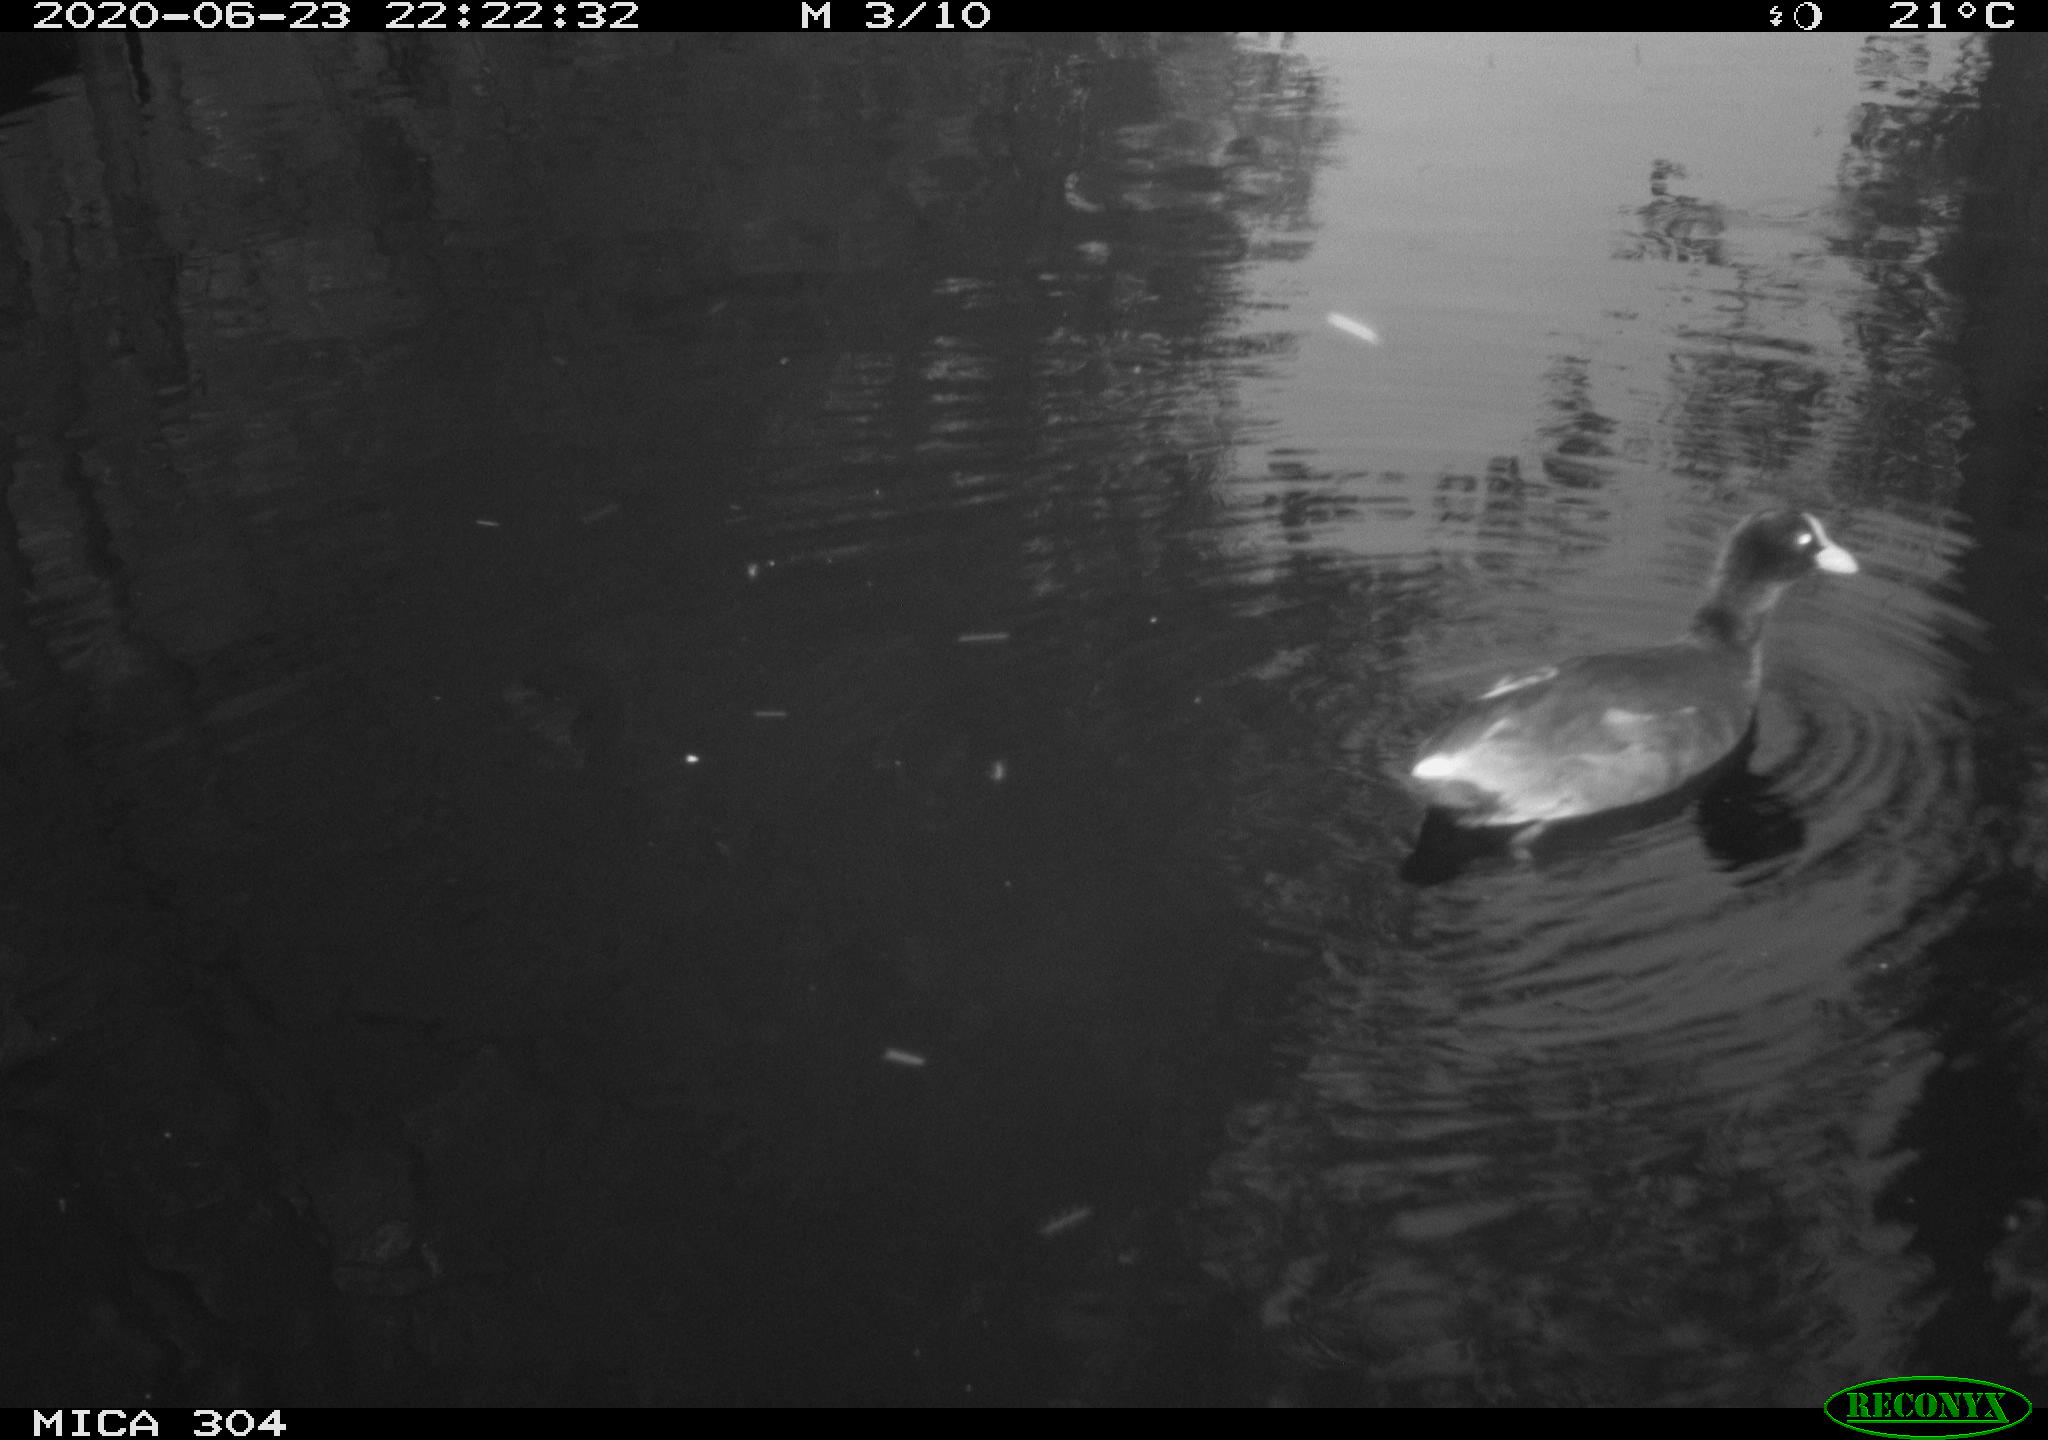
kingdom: Animalia
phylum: Chordata
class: Aves
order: Gruiformes
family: Rallidae
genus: Gallinula
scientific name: Gallinula chloropus
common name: Common moorhen
